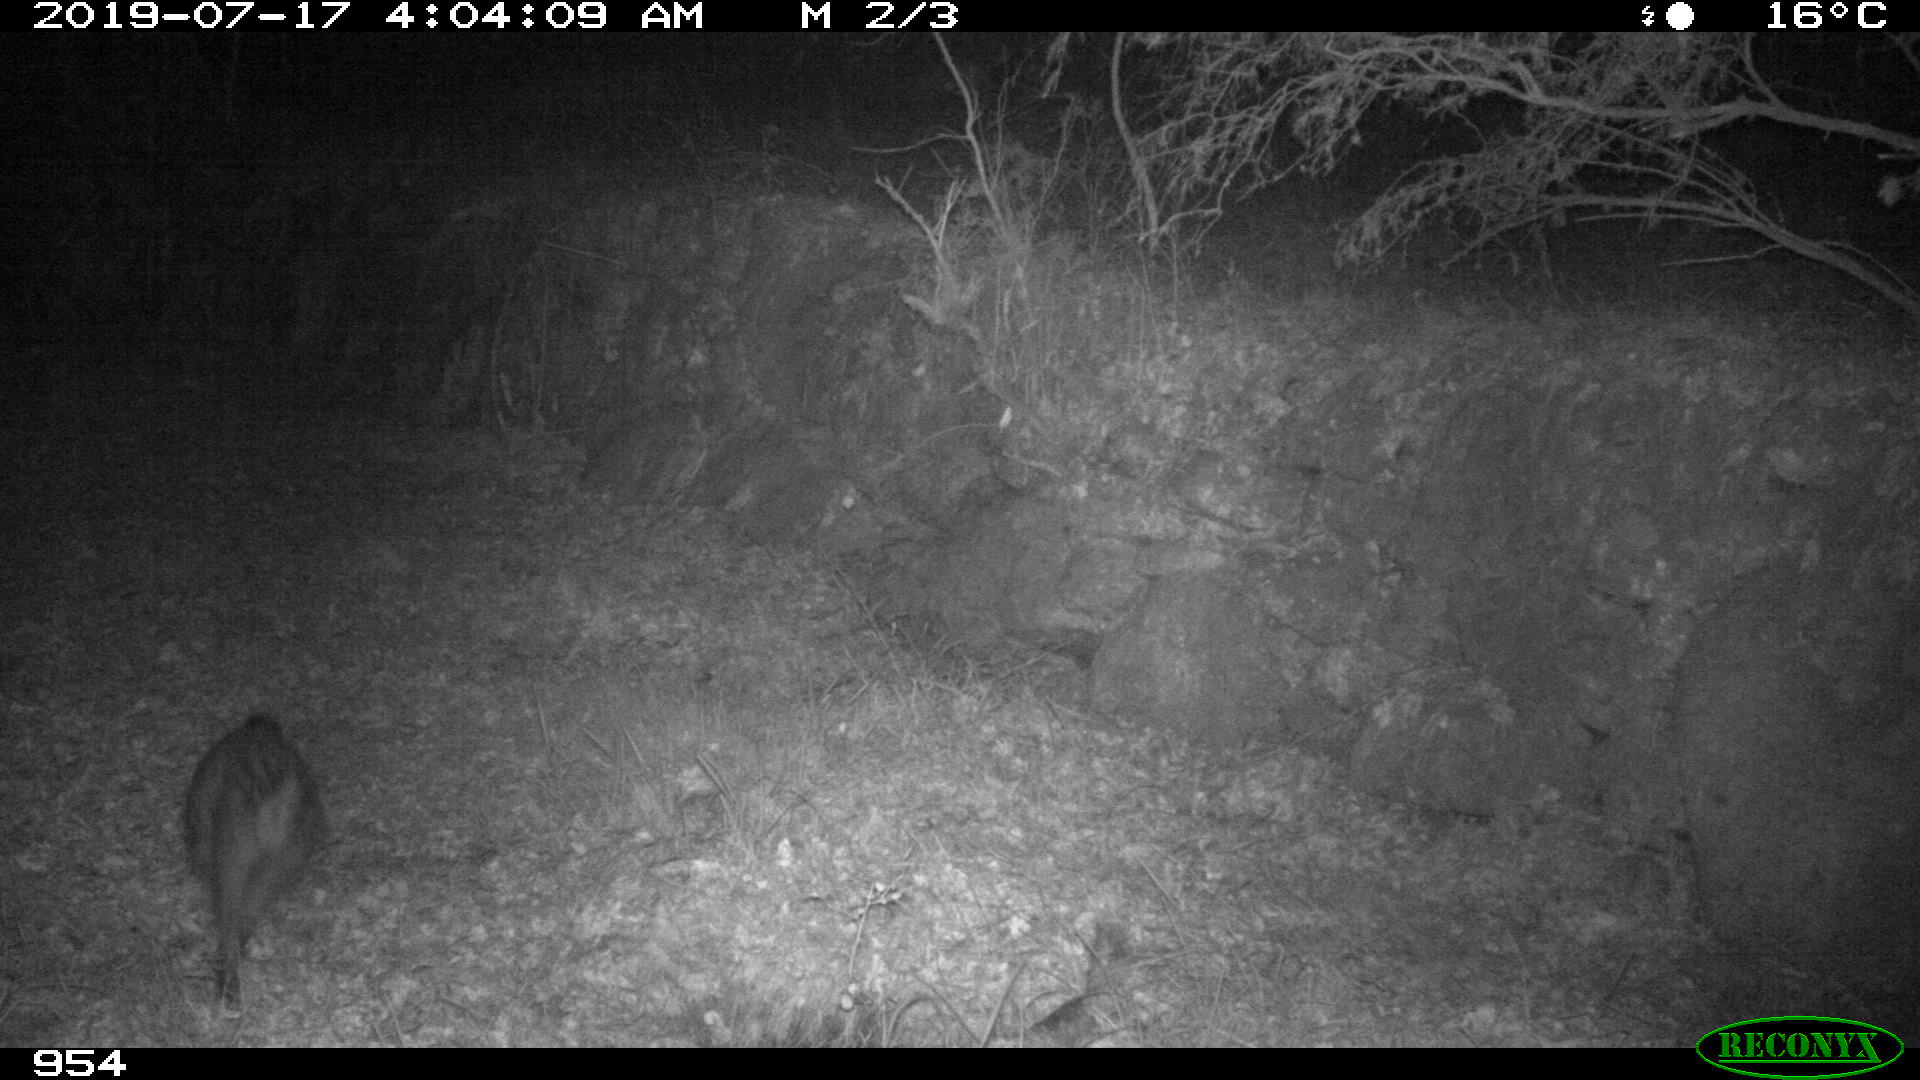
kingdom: Animalia
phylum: Chordata
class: Mammalia
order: Artiodactyla
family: Suidae
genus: Sus
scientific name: Sus scrofa
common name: Wild boar
